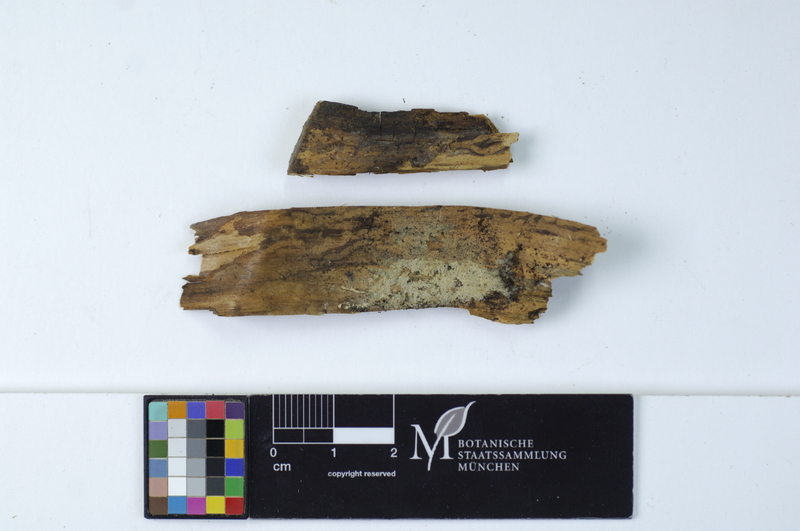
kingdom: Fungi
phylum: Basidiomycota
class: Agaricomycetes
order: Hymenochaetales
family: Schizoporaceae
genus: Xylodon
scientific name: Xylodon brevisetus
